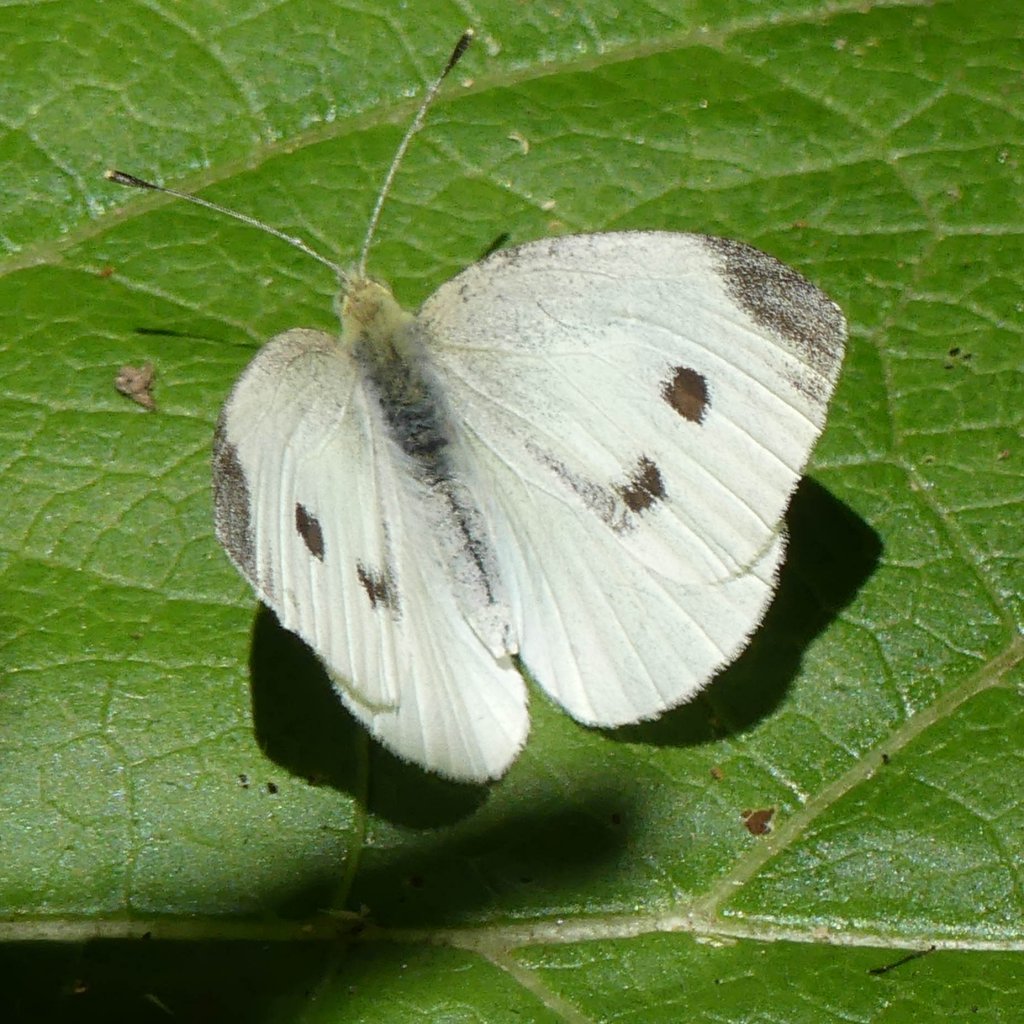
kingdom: Animalia
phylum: Arthropoda
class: Insecta
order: Lepidoptera
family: Pieridae
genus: Pieris
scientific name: Pieris rapae
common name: Cabbage White
